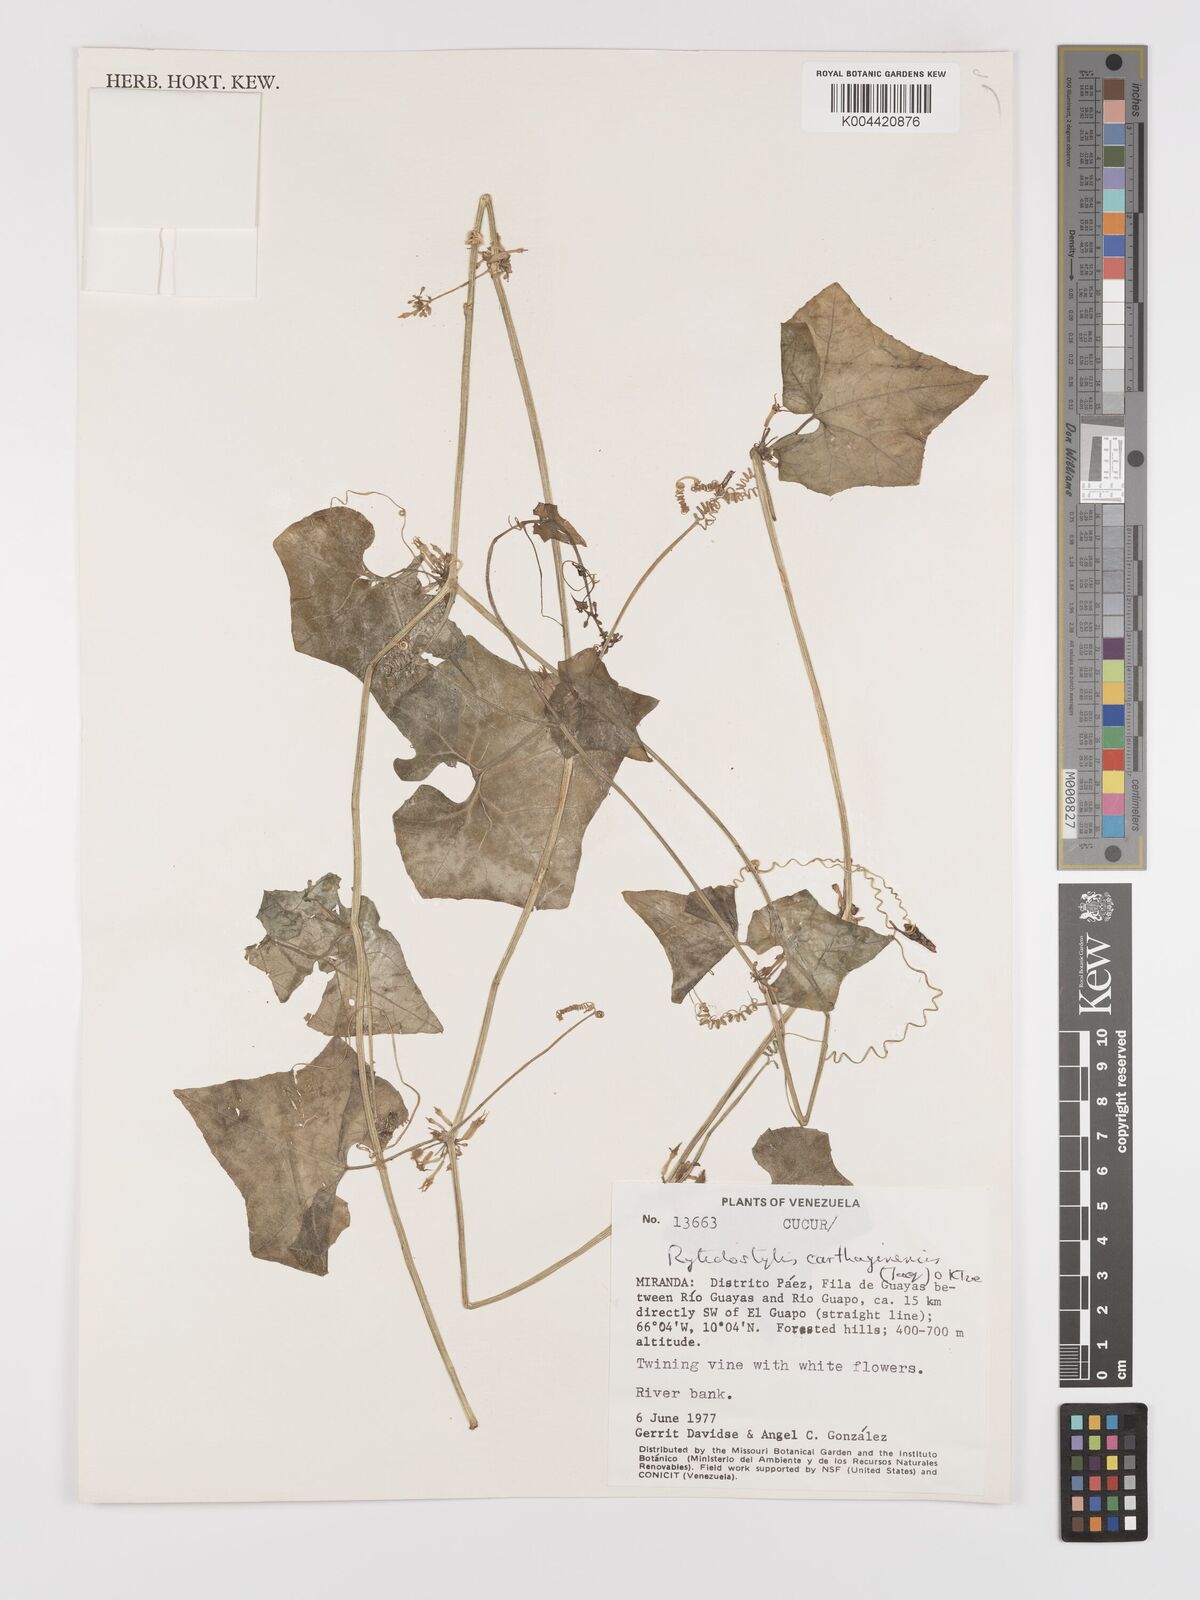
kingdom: Plantae
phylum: Tracheophyta
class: Magnoliopsida
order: Cucurbitales
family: Cucurbitaceae
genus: Cyclanthera
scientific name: Cyclanthera carthagenensis
